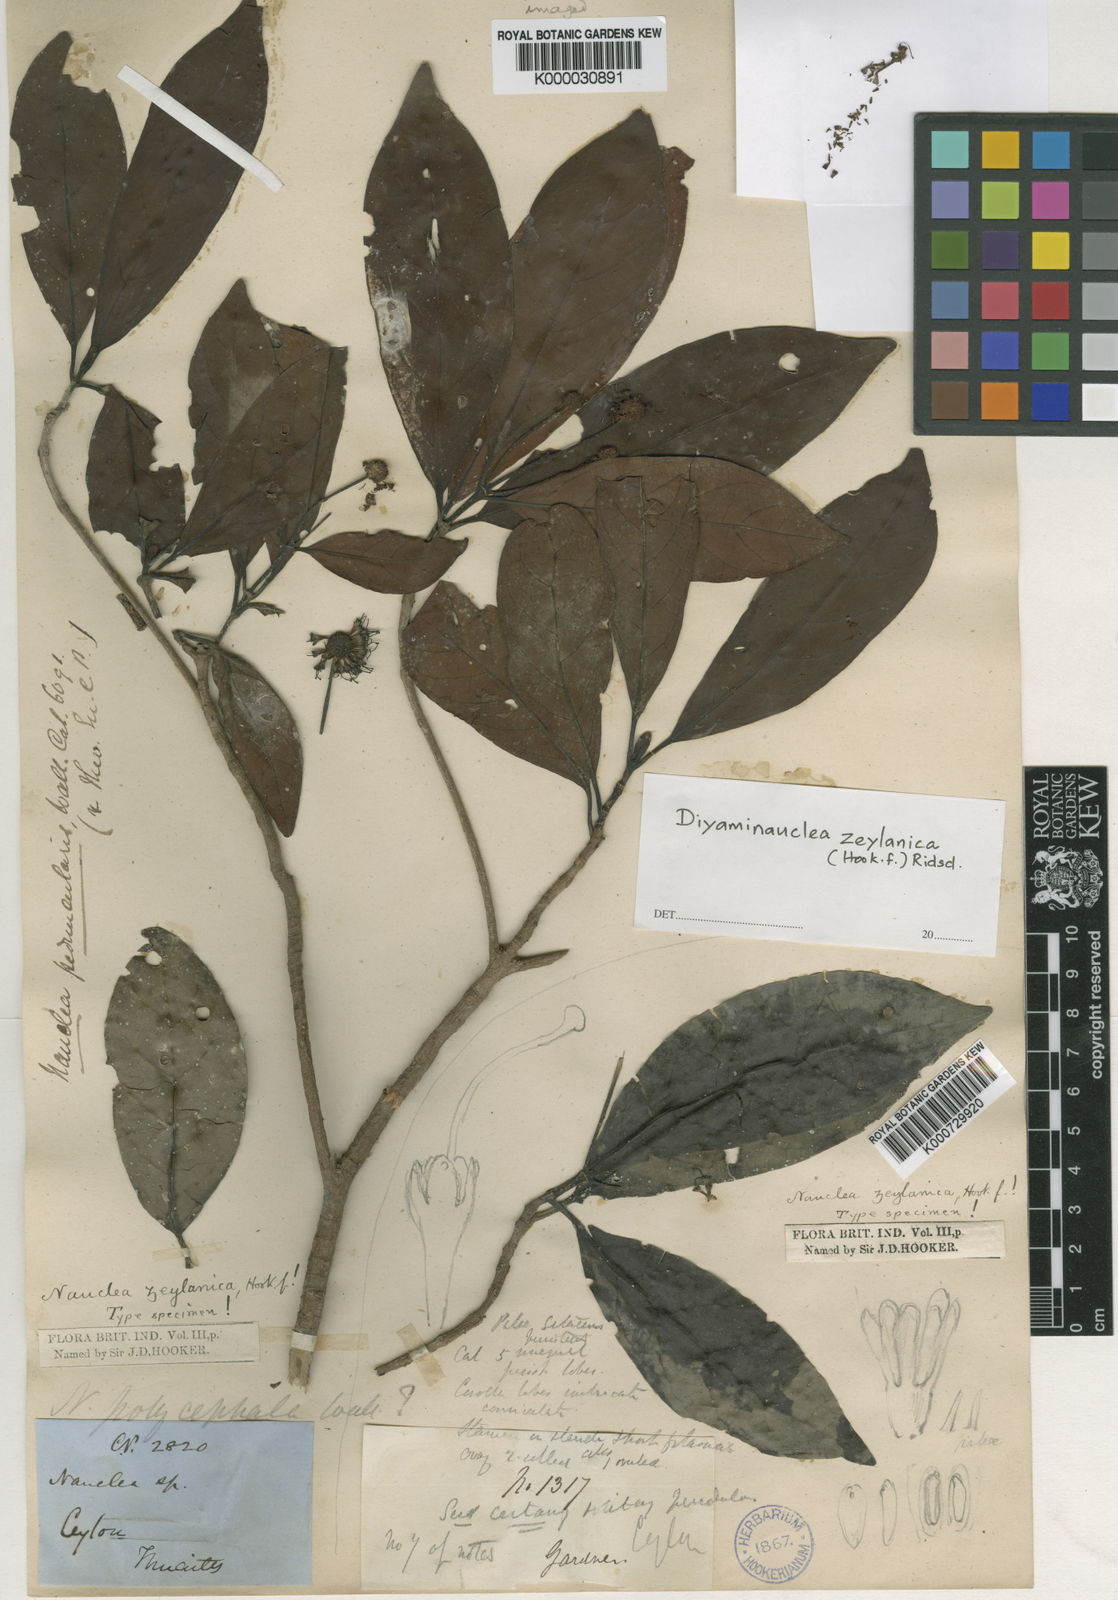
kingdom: Plantae
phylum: Tracheophyta
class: Magnoliopsida
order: Gentianales
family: Rubiaceae
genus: Diyaminauclea
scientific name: Diyaminauclea zeylanica
